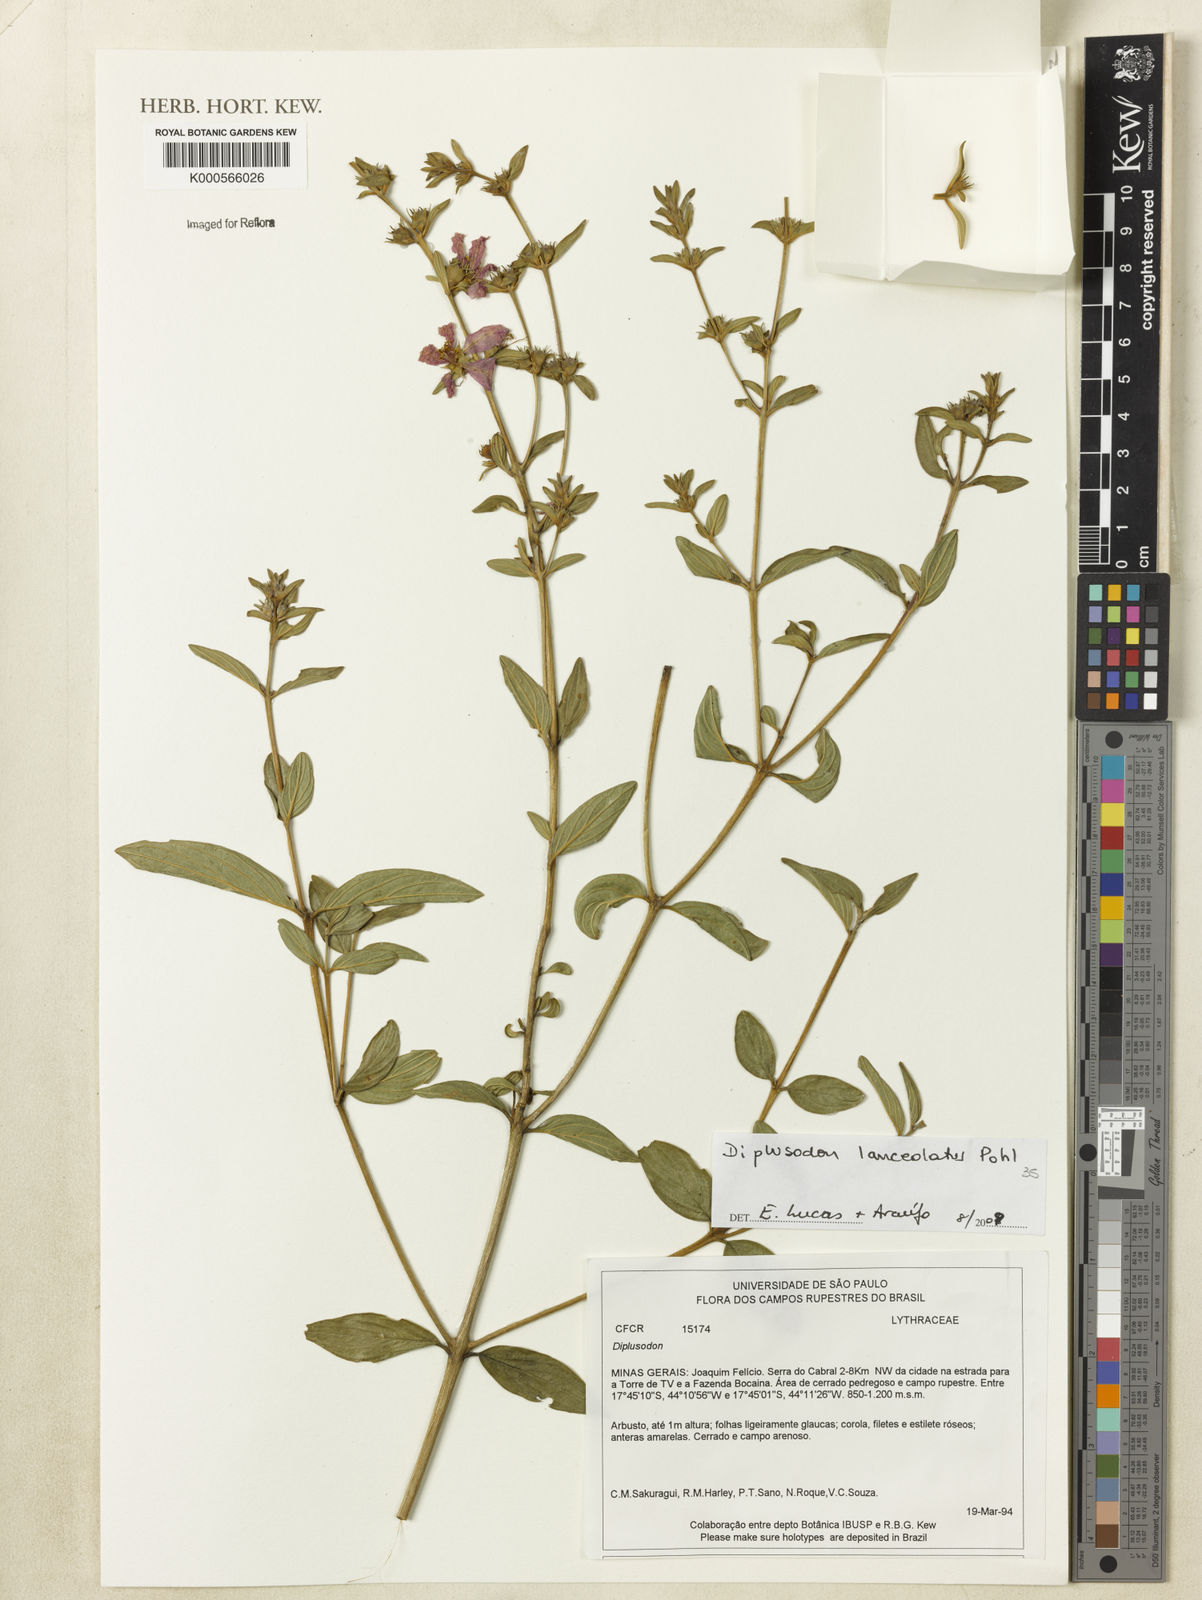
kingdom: Plantae
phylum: Tracheophyta
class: Magnoliopsida
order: Myrtales
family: Lythraceae
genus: Diplusodon
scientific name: Diplusodon lanceolatus
